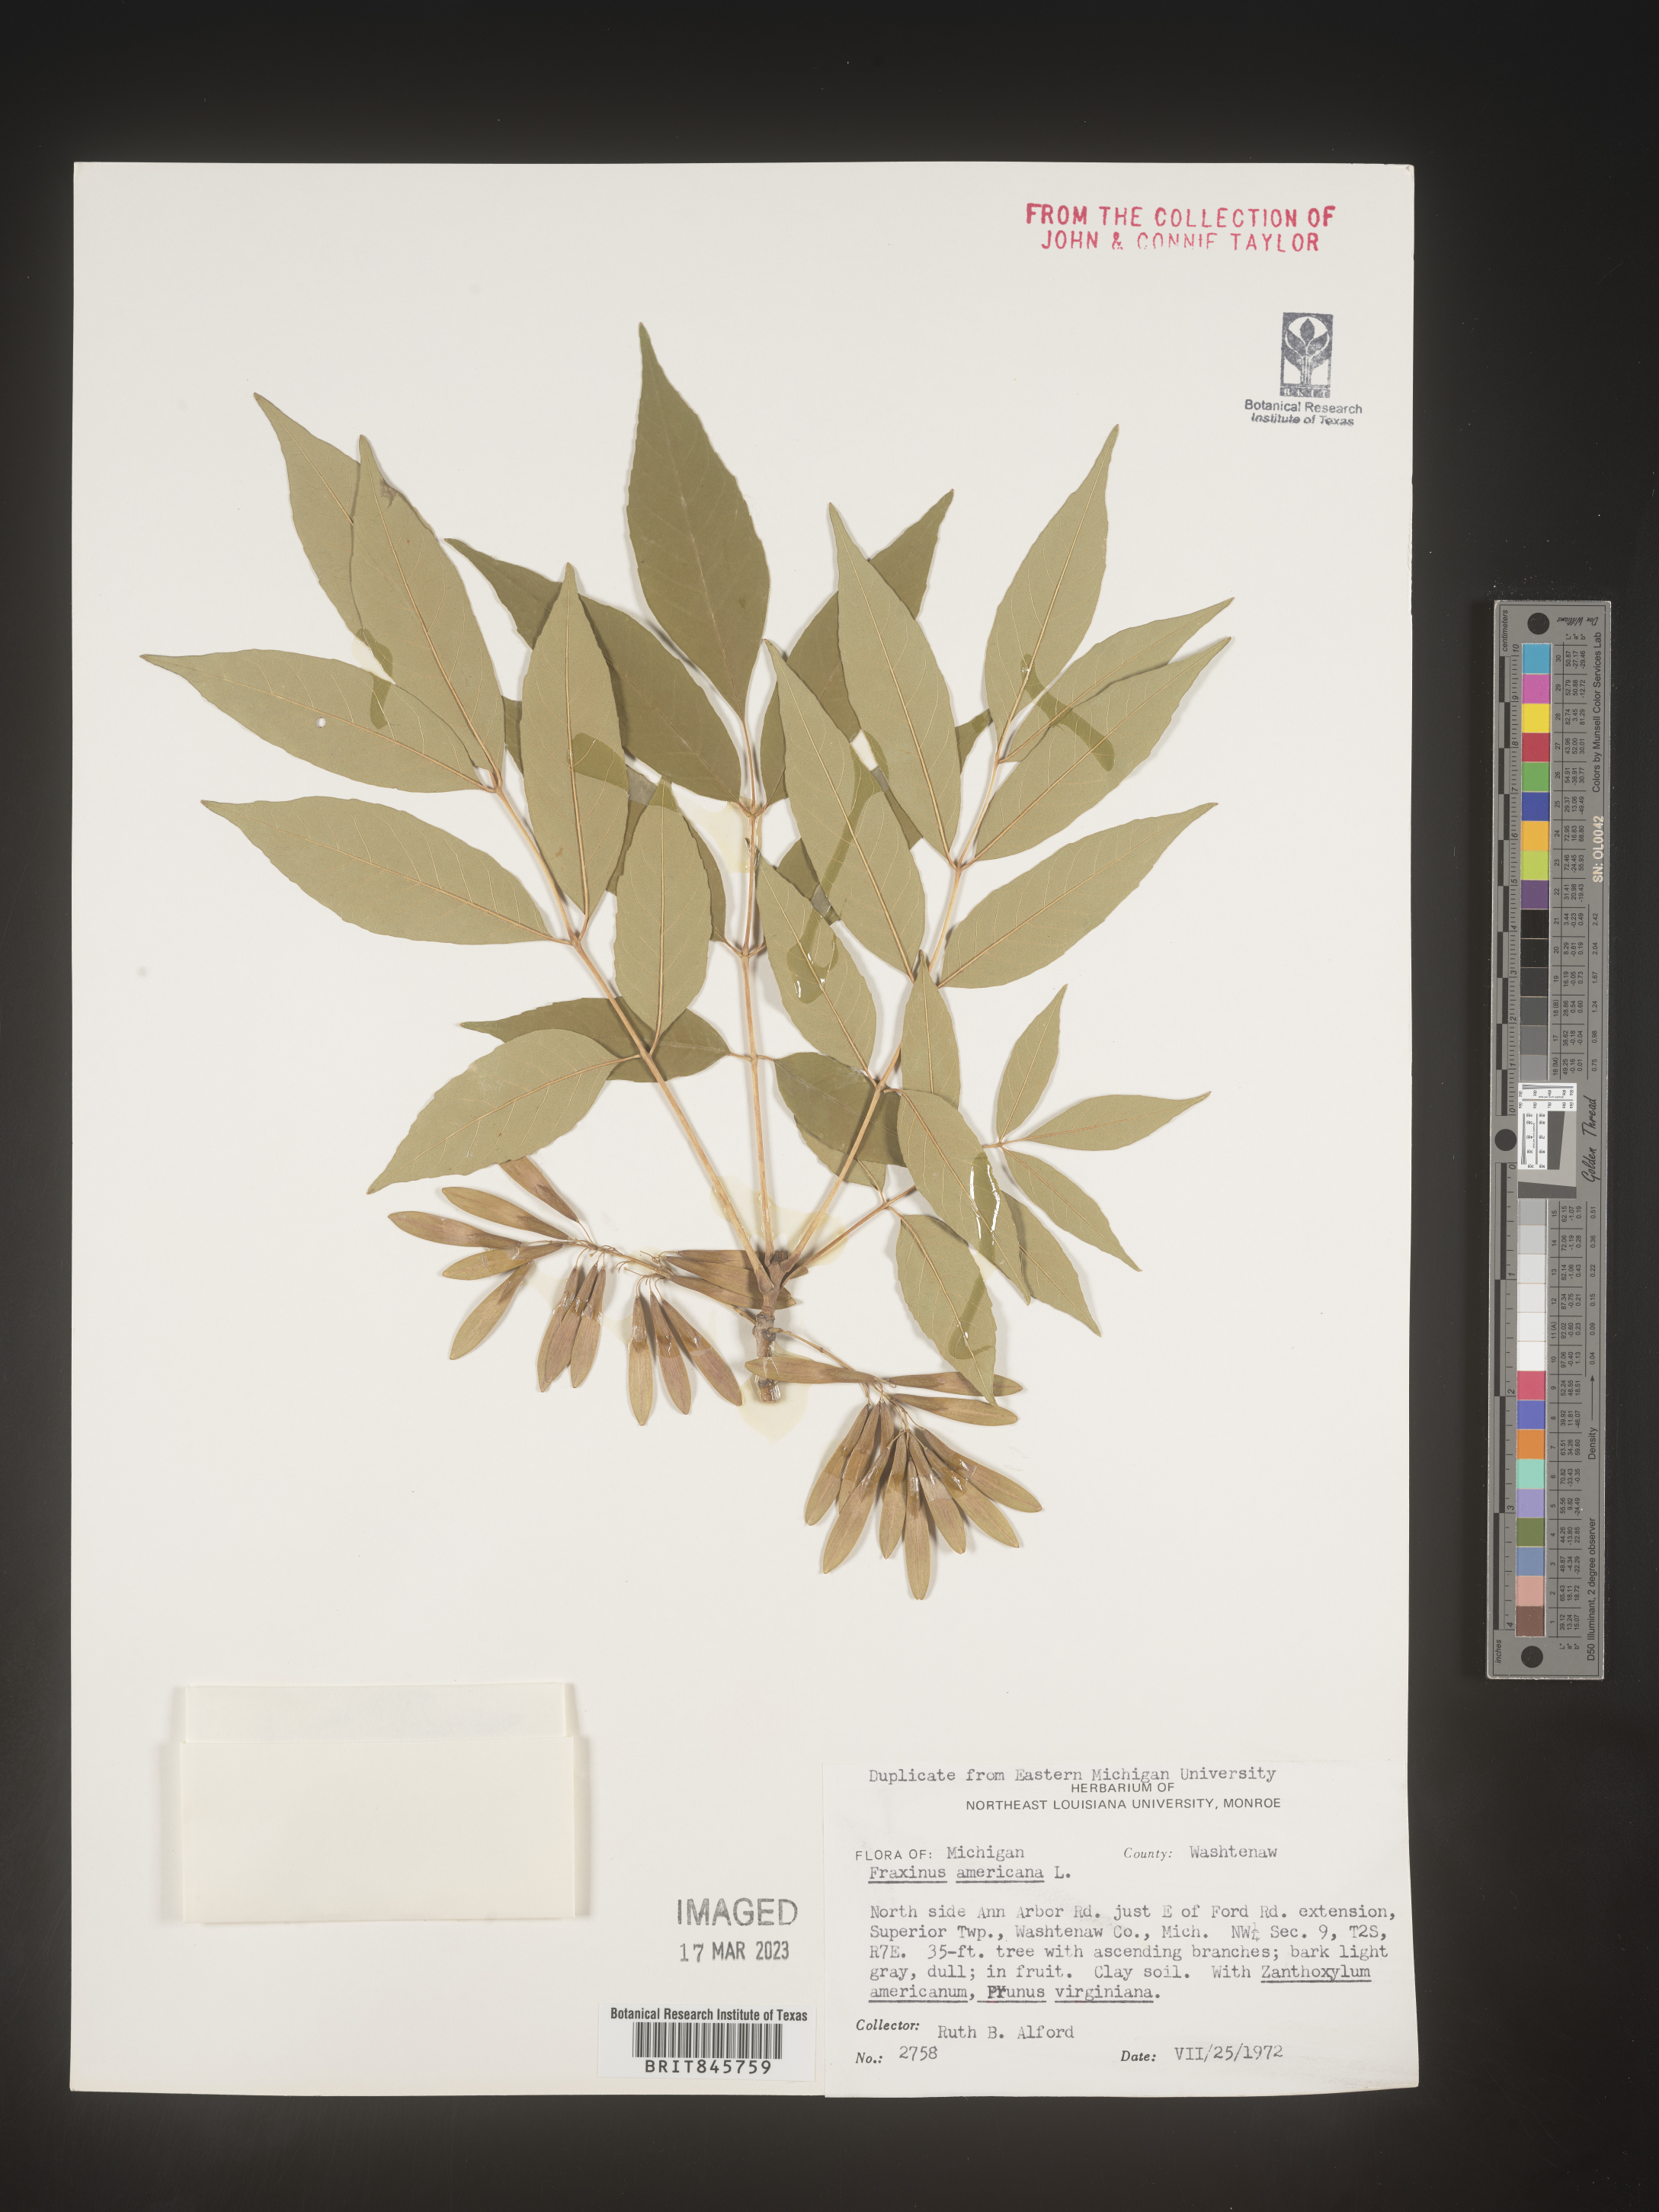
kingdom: Plantae
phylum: Tracheophyta
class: Magnoliopsida
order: Lamiales
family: Oleaceae
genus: Fraxinus
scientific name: Fraxinus americana
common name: White ash
